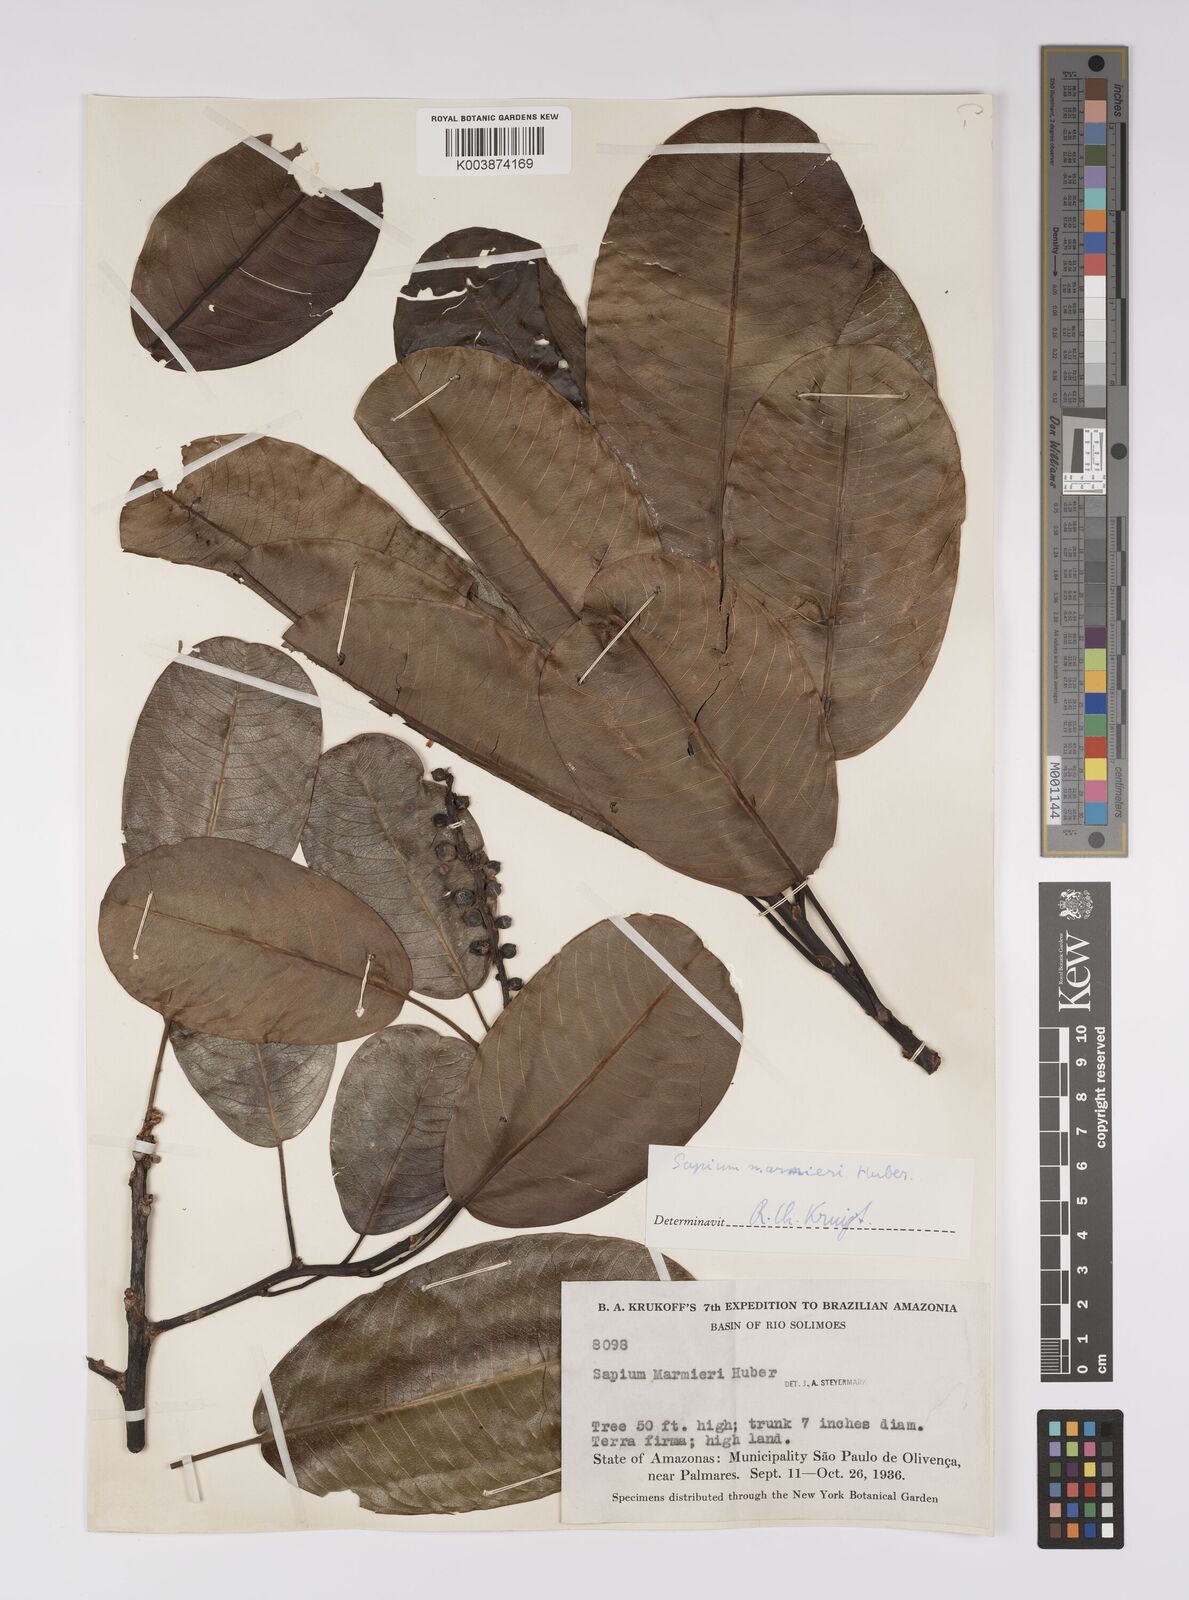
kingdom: Plantae
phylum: Tracheophyta
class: Magnoliopsida
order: Malpighiales
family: Euphorbiaceae
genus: Sapium
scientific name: Sapium marmieri
